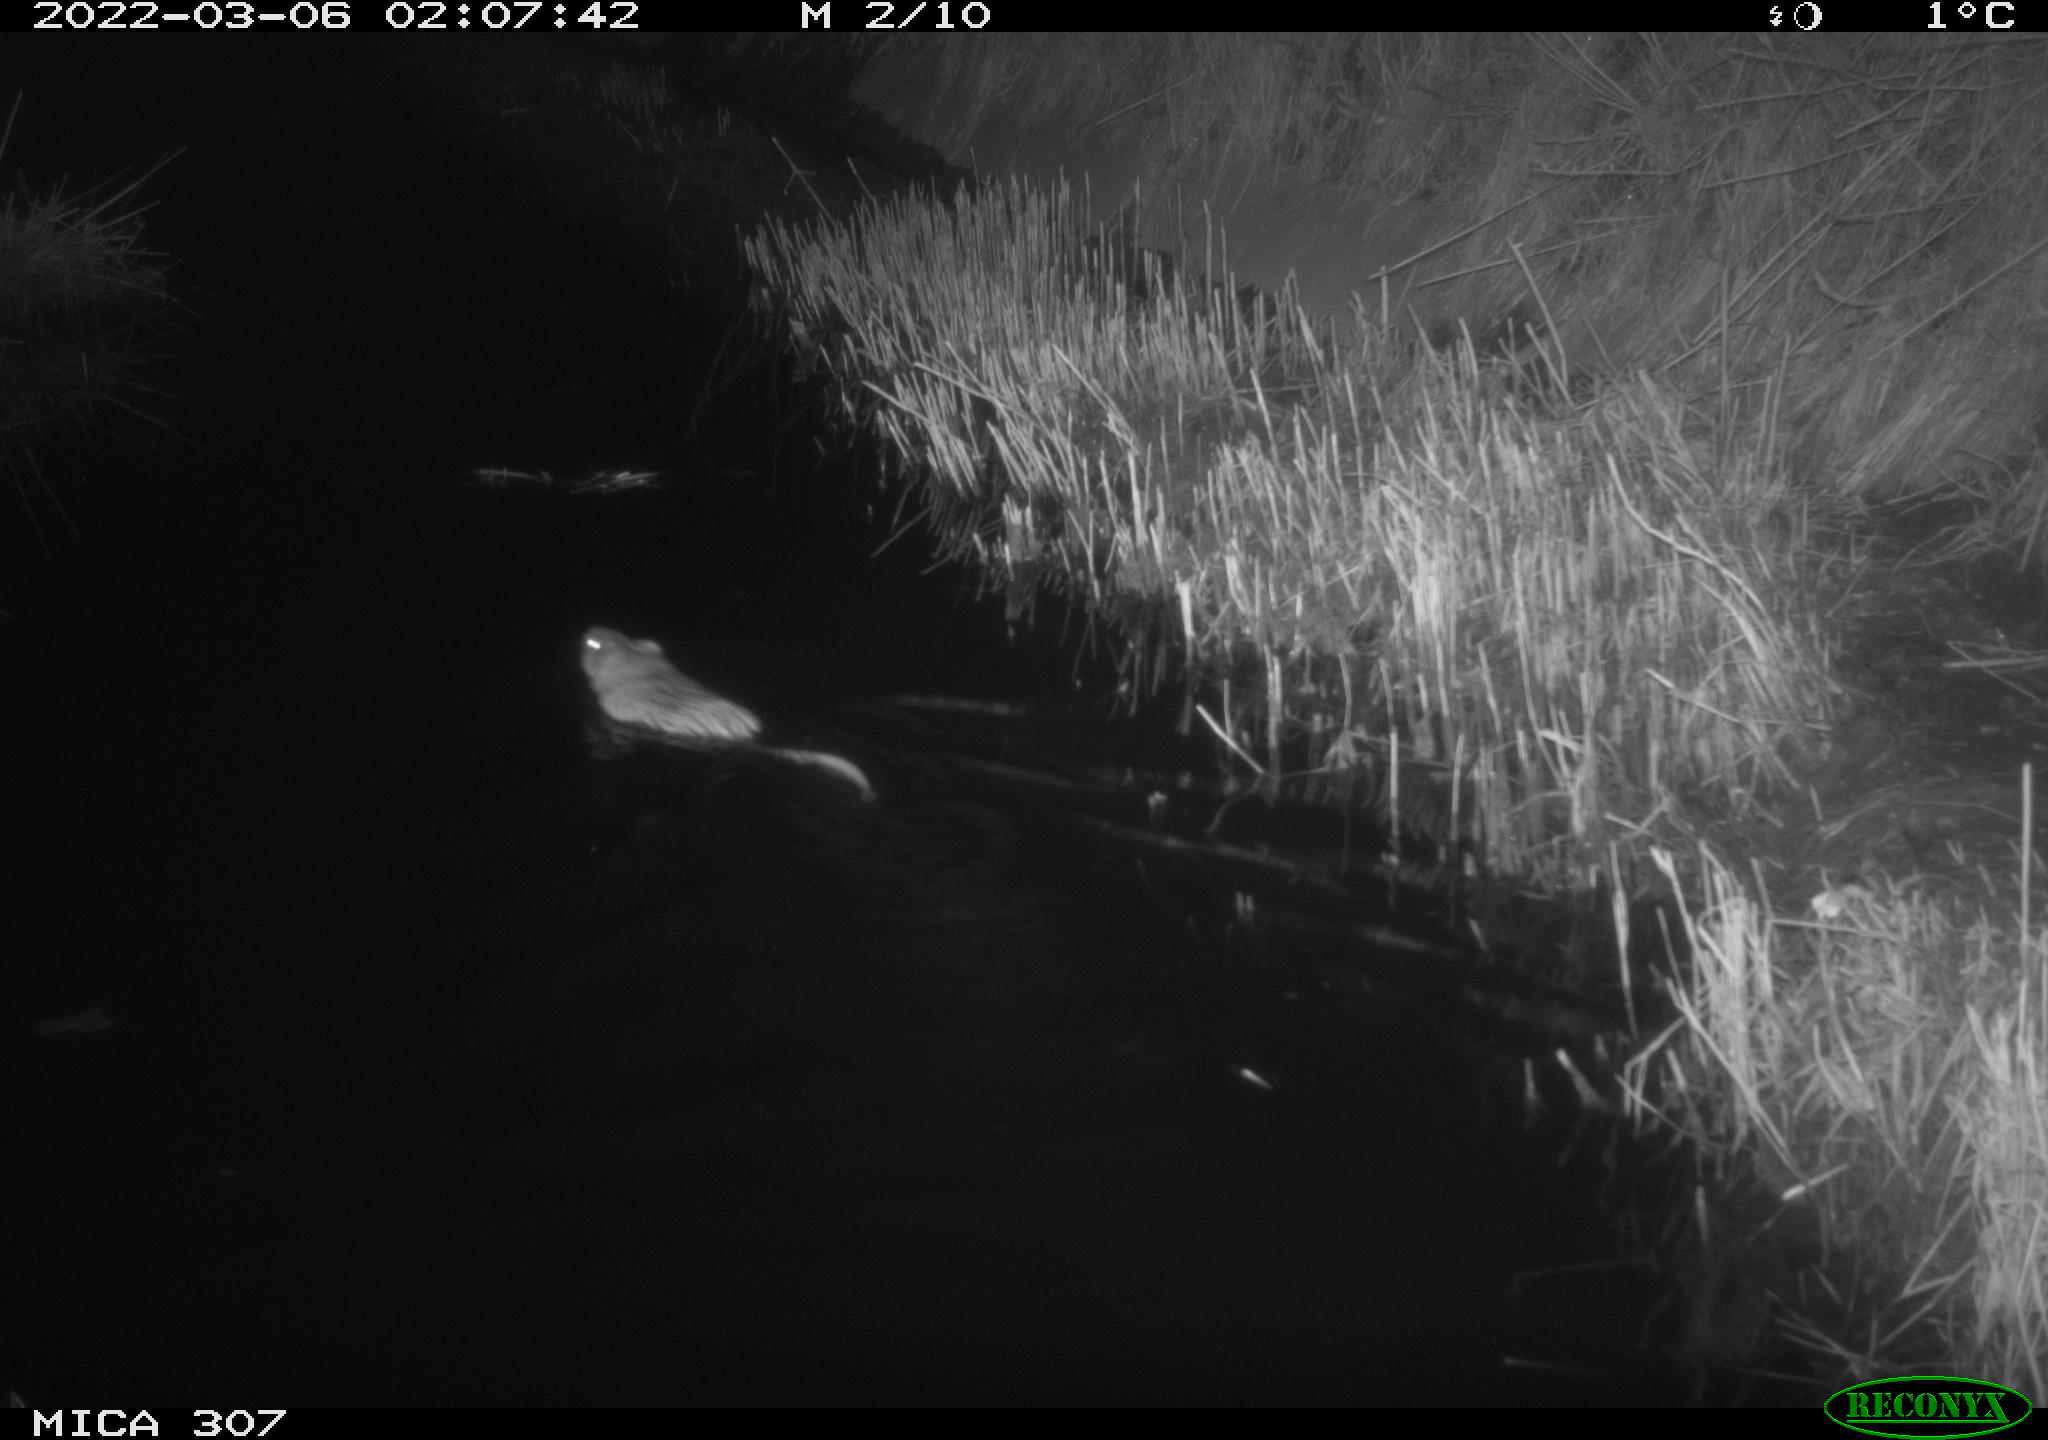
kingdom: Animalia
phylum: Chordata
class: Mammalia
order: Rodentia
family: Cricetidae
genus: Ondatra
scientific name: Ondatra zibethicus
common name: Muskrat
